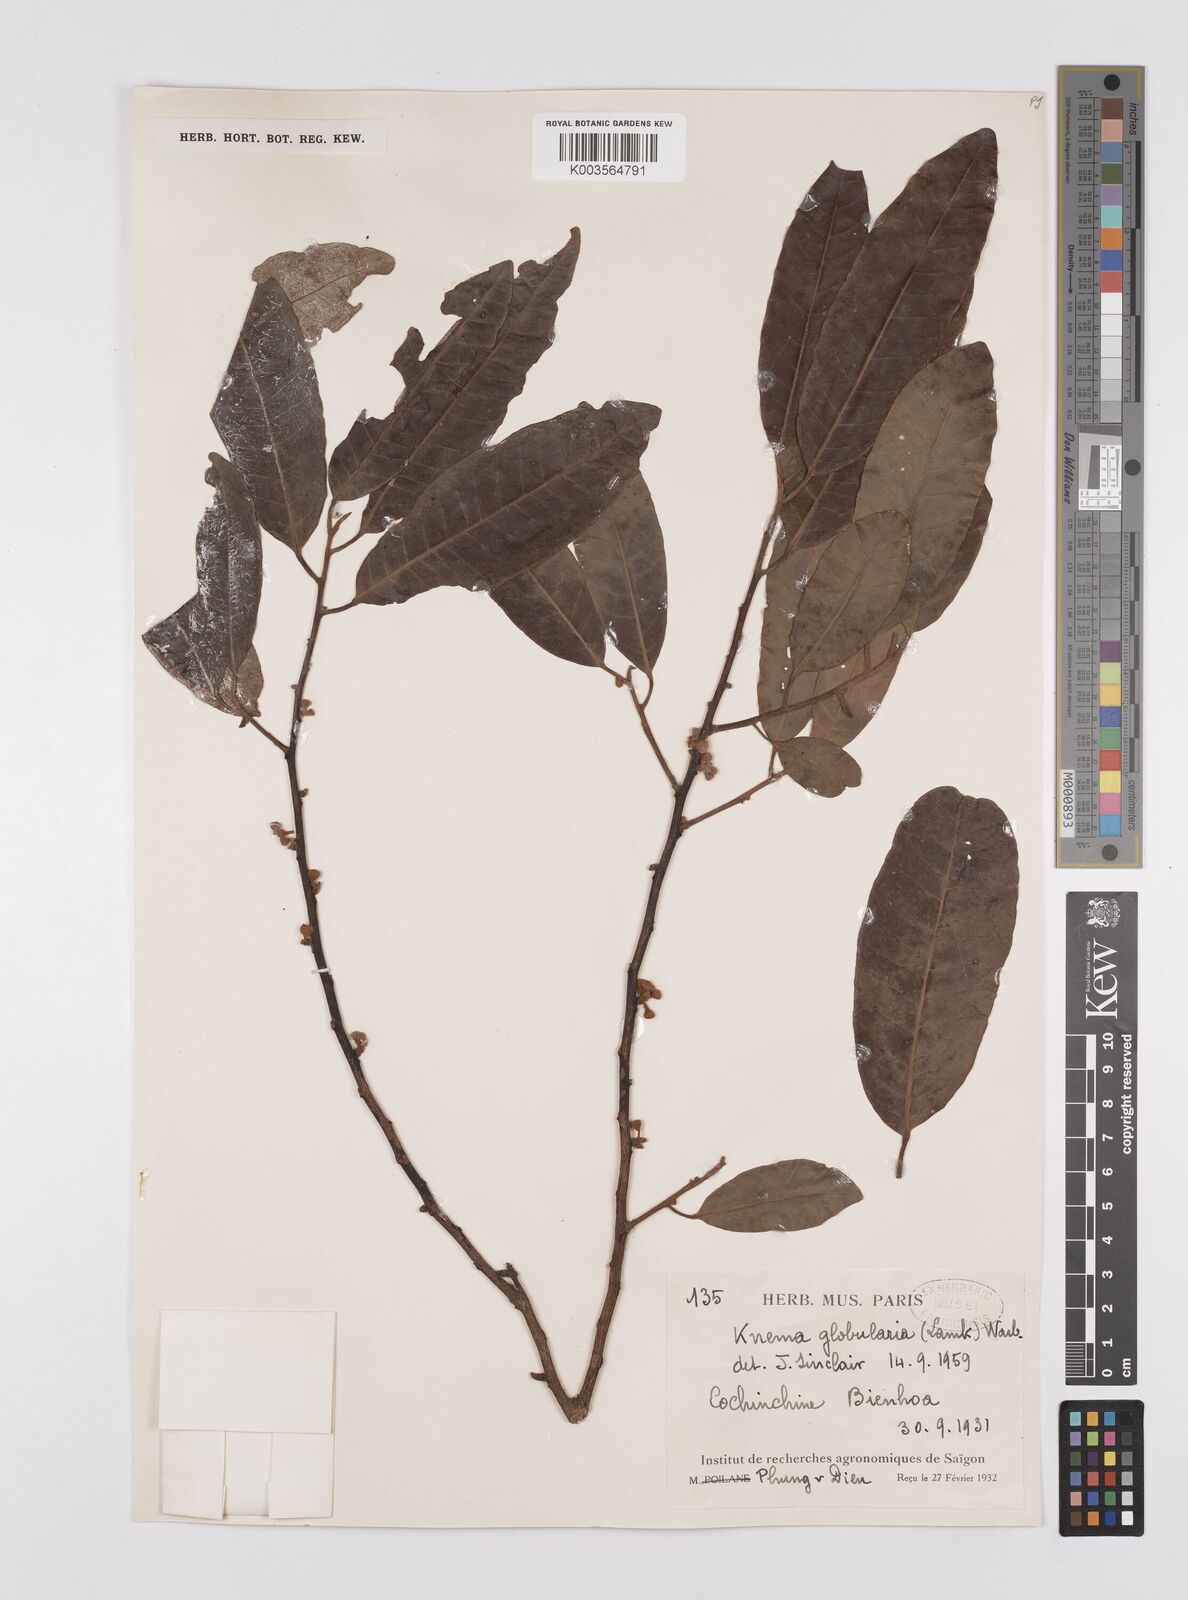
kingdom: Plantae
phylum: Tracheophyta
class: Magnoliopsida
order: Magnoliales
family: Myristicaceae
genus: Knema
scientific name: Knema globularia
